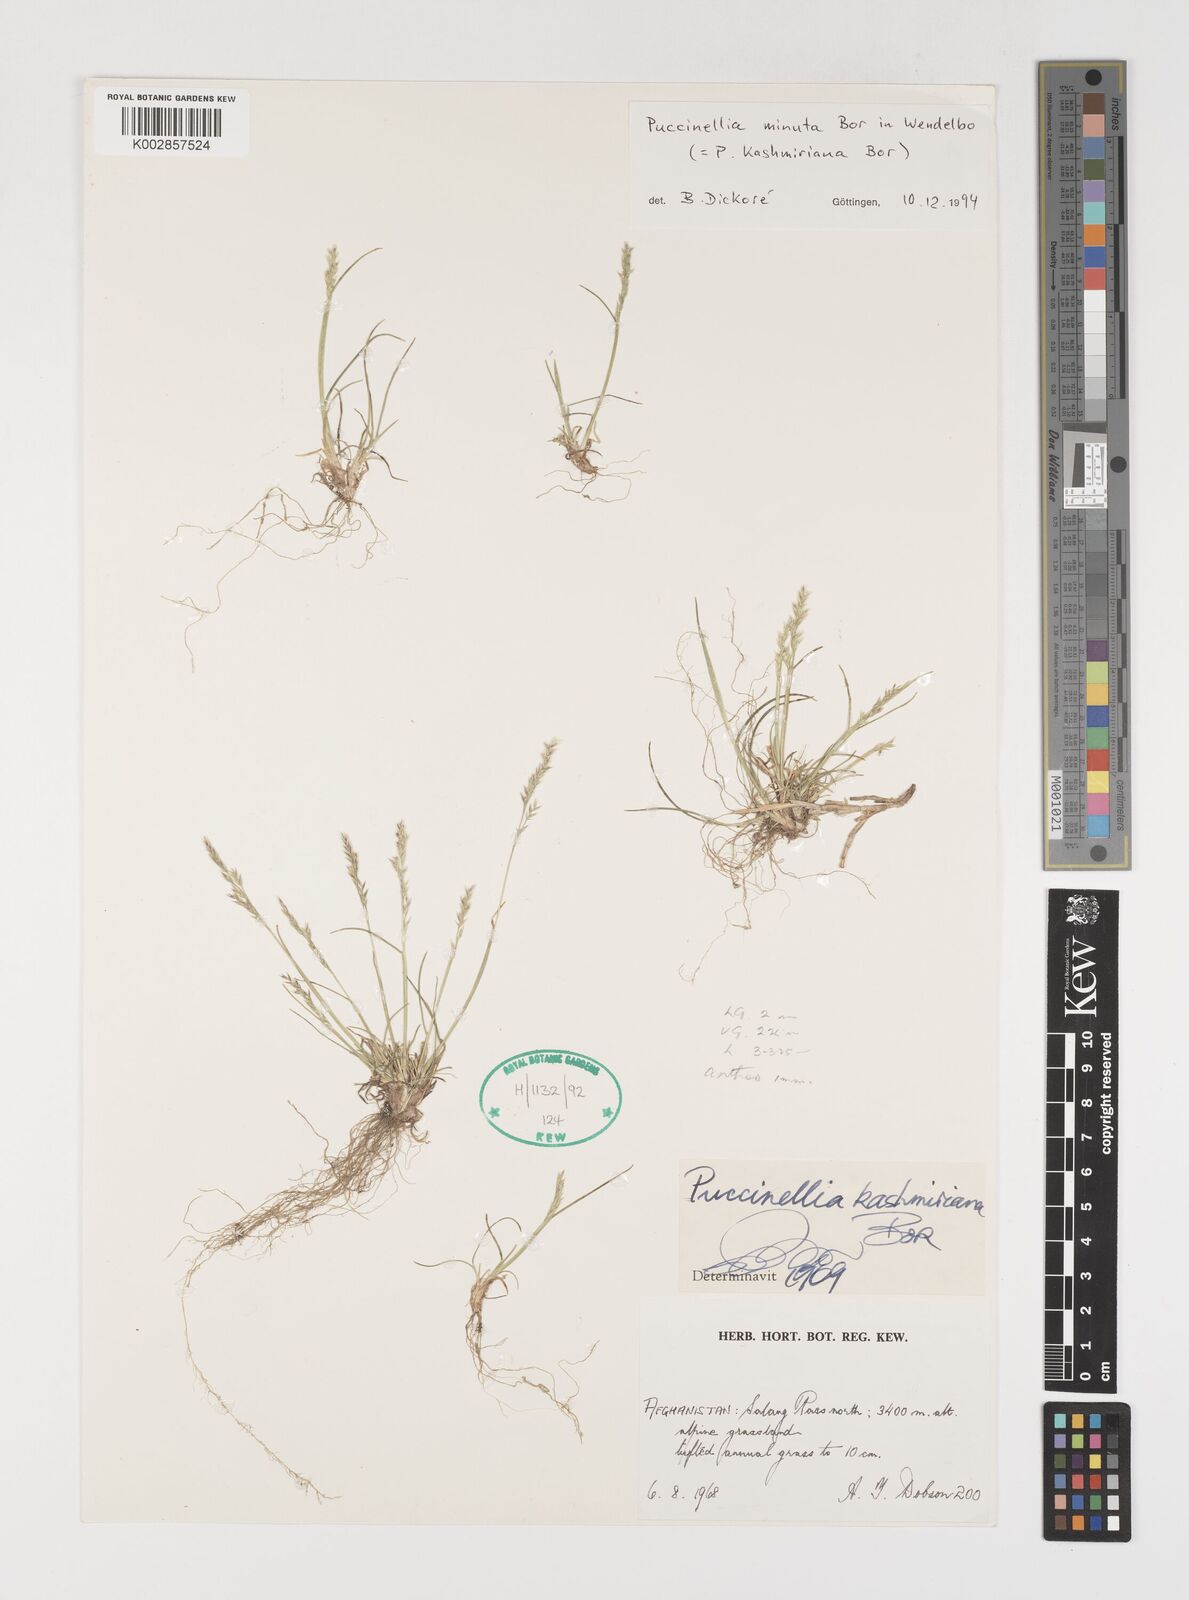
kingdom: Plantae
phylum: Tracheophyta
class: Liliopsida
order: Poales
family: Poaceae
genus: Puccinellia
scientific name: Puccinellia minuta
